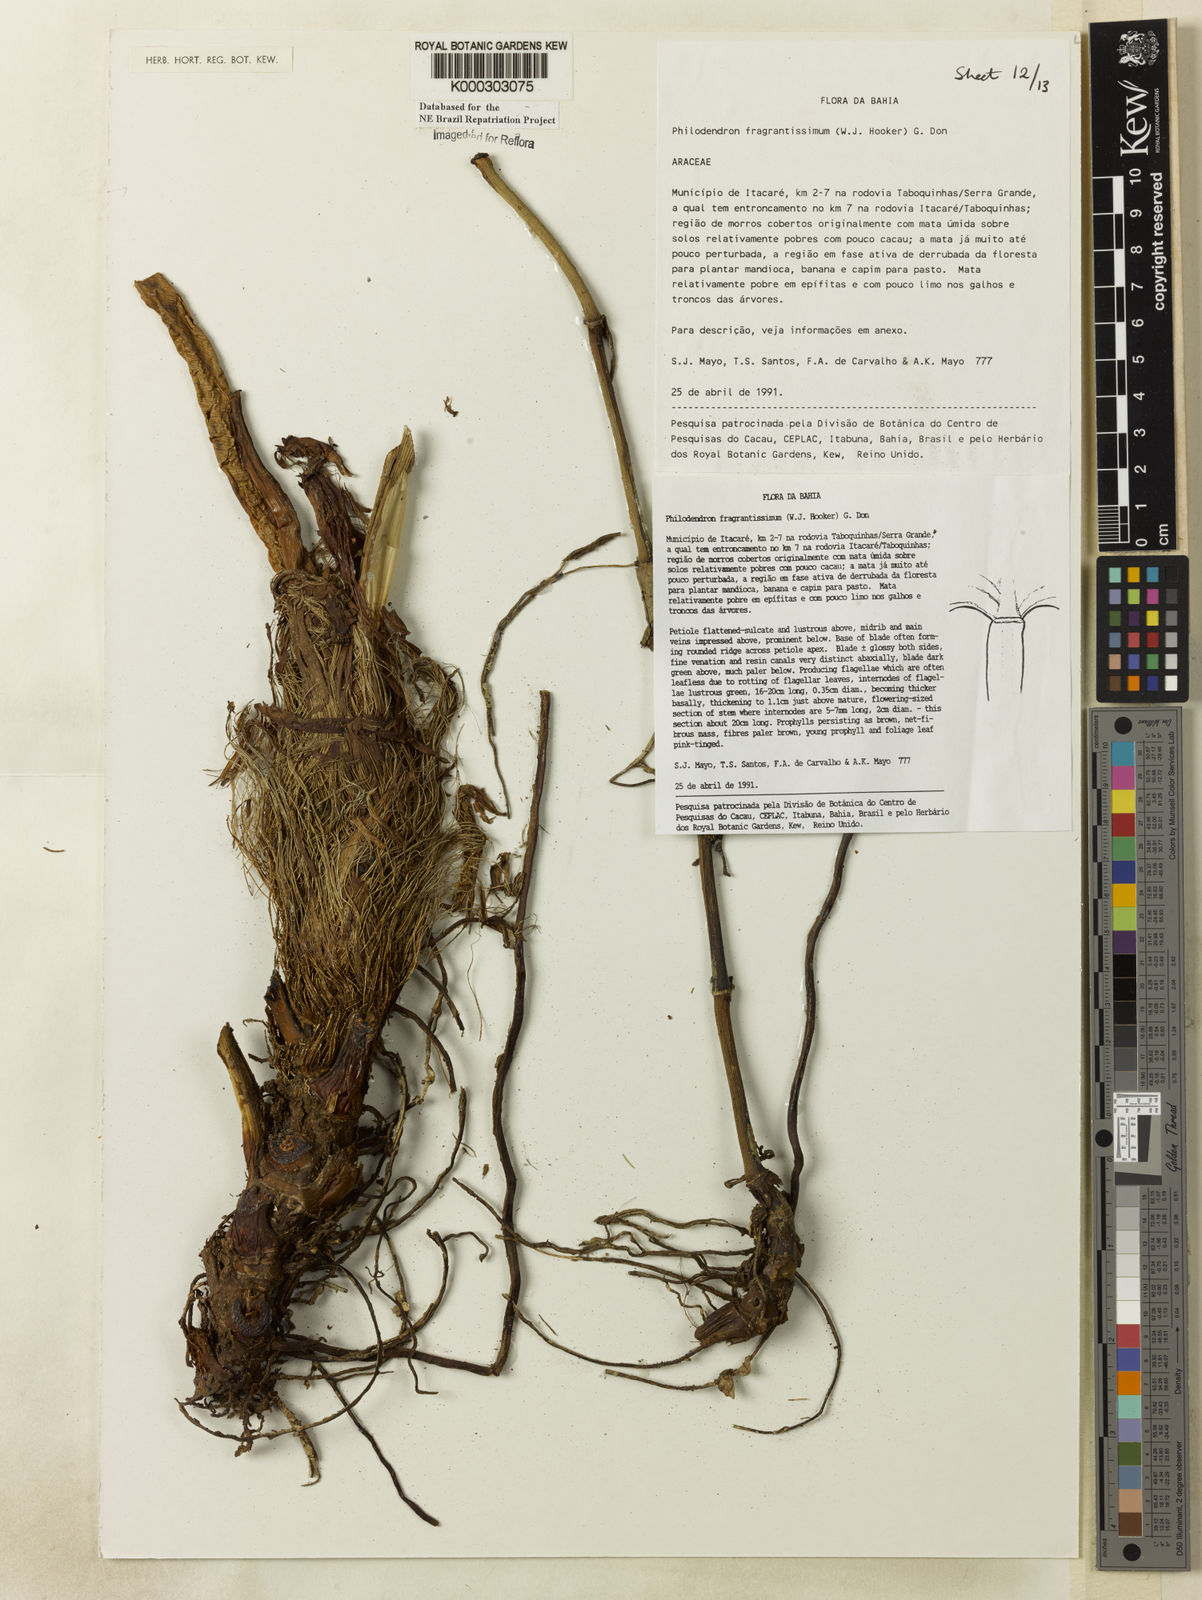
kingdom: Plantae
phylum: Tracheophyta
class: Liliopsida
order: Alismatales
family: Araceae
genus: Philodendron
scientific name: Philodendron fragrantissimum
